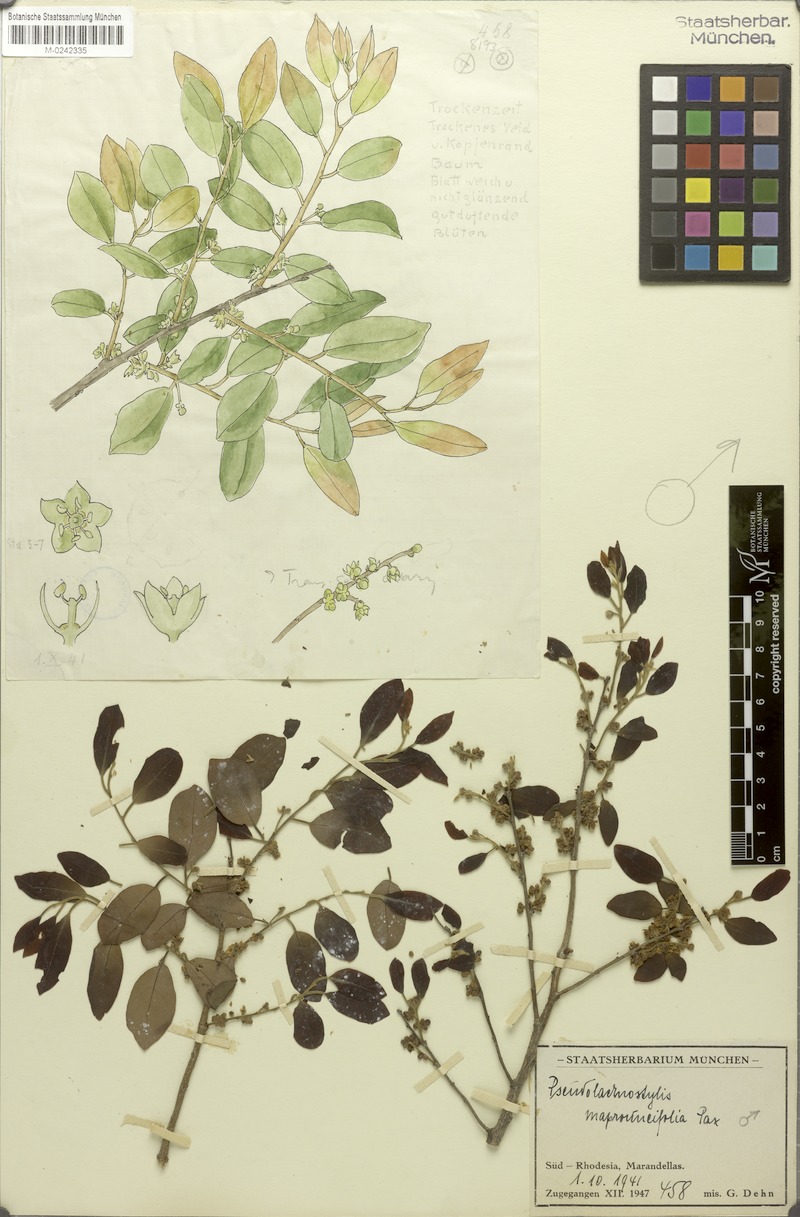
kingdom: Plantae
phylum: Tracheophyta
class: Magnoliopsida
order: Malpighiales
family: Phyllanthaceae
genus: Pseudolachnostylis
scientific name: Pseudolachnostylis maprouneifolia
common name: Kudu berry
